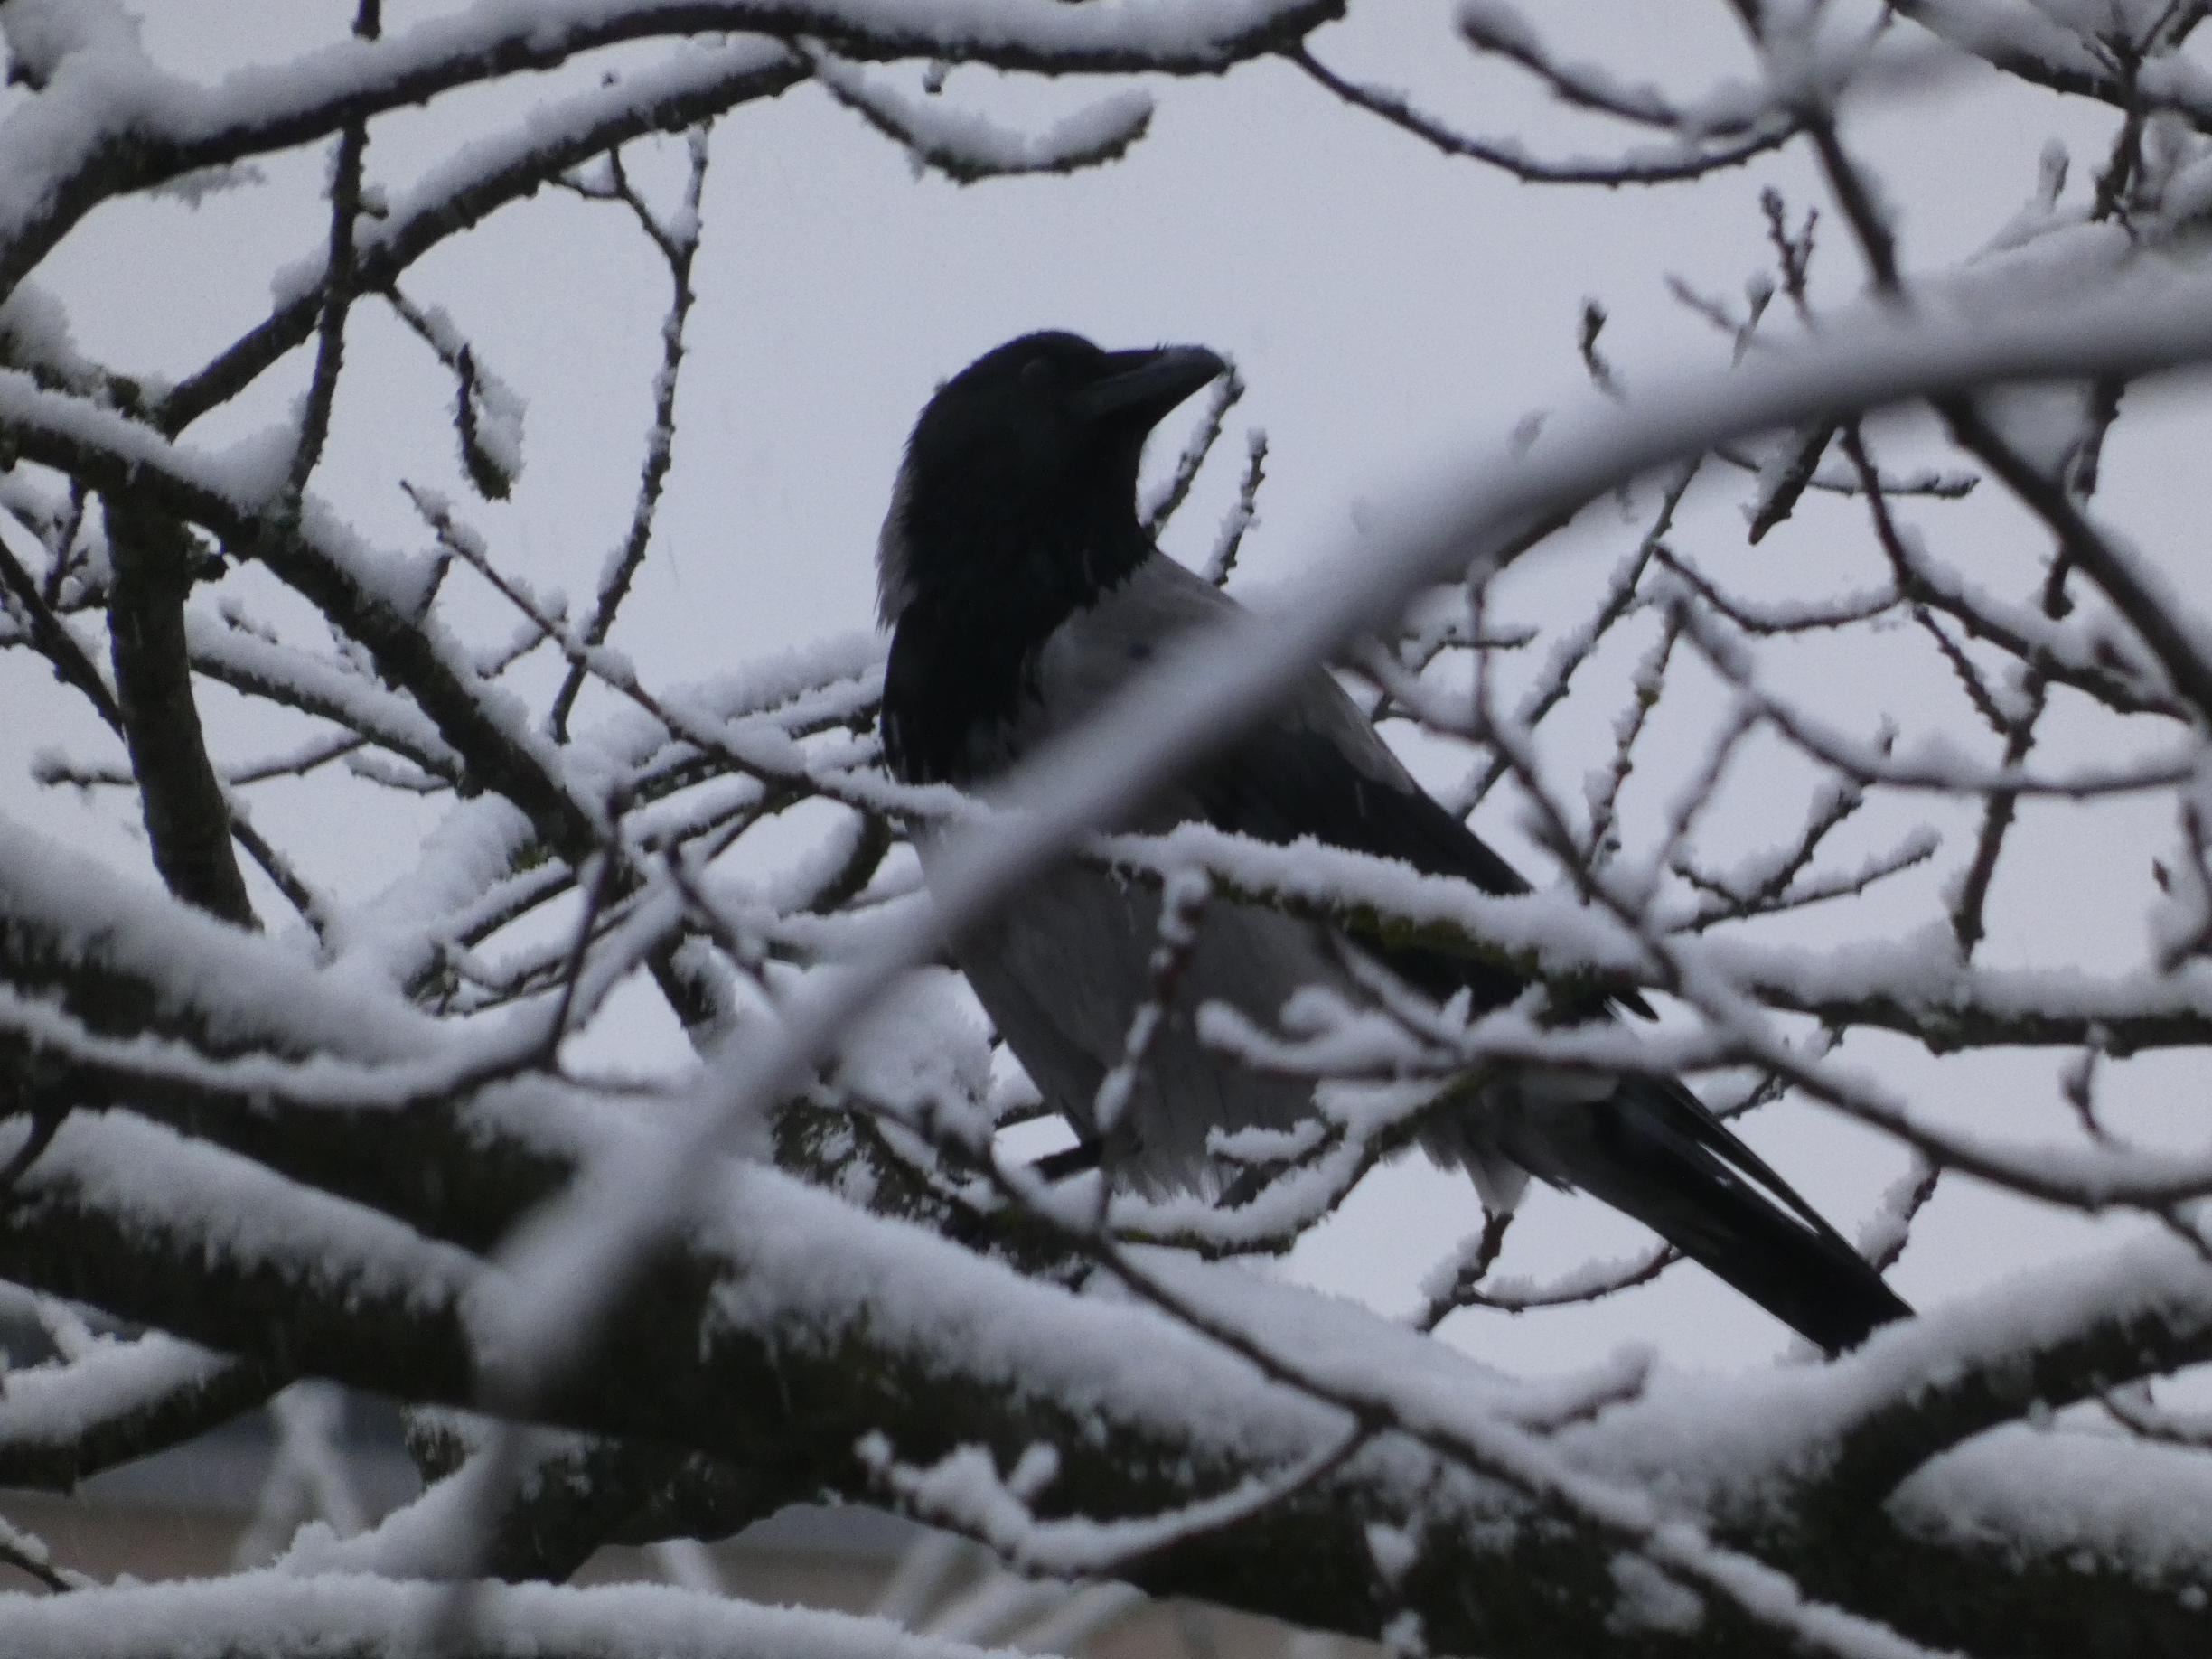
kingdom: Animalia
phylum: Chordata
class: Aves
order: Passeriformes
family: Corvidae
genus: Corvus
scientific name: Corvus cornix
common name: Gråkrage
